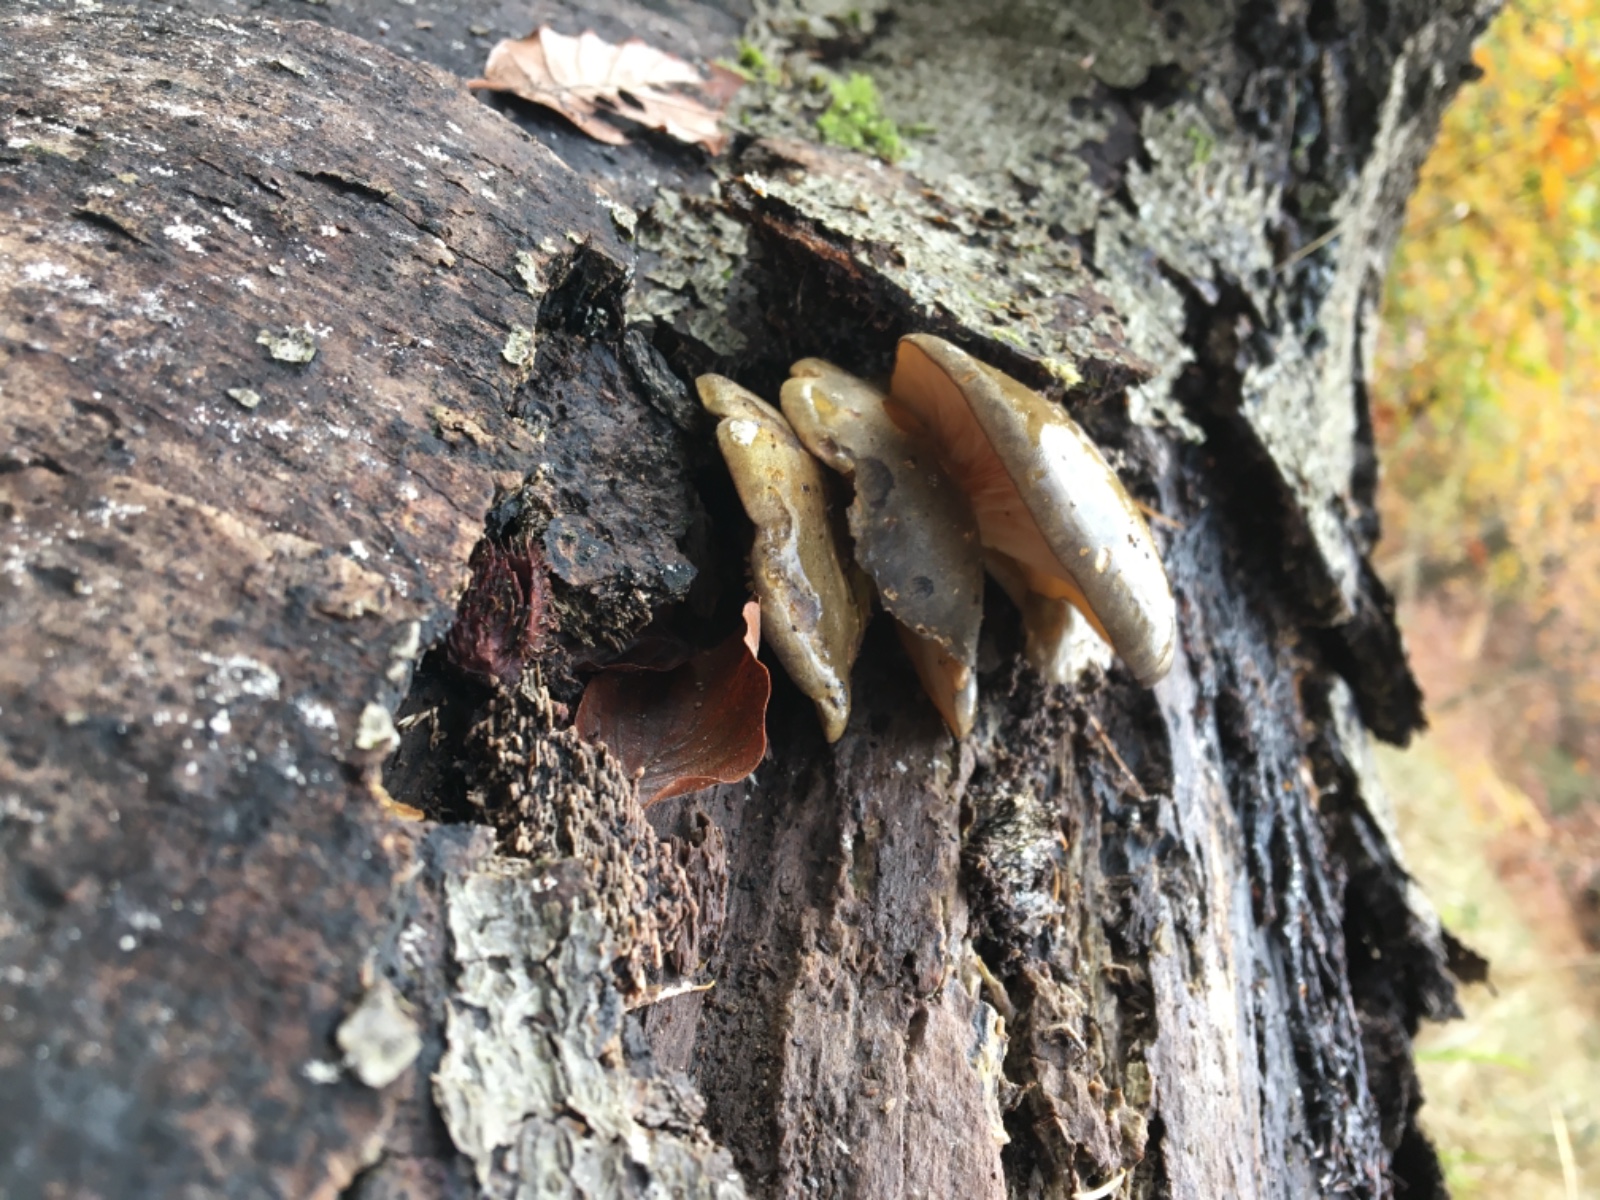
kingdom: Fungi
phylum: Basidiomycota
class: Agaricomycetes
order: Agaricales
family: Sarcomyxaceae
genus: Sarcomyxa
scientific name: Sarcomyxa serotina
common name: gummihat
